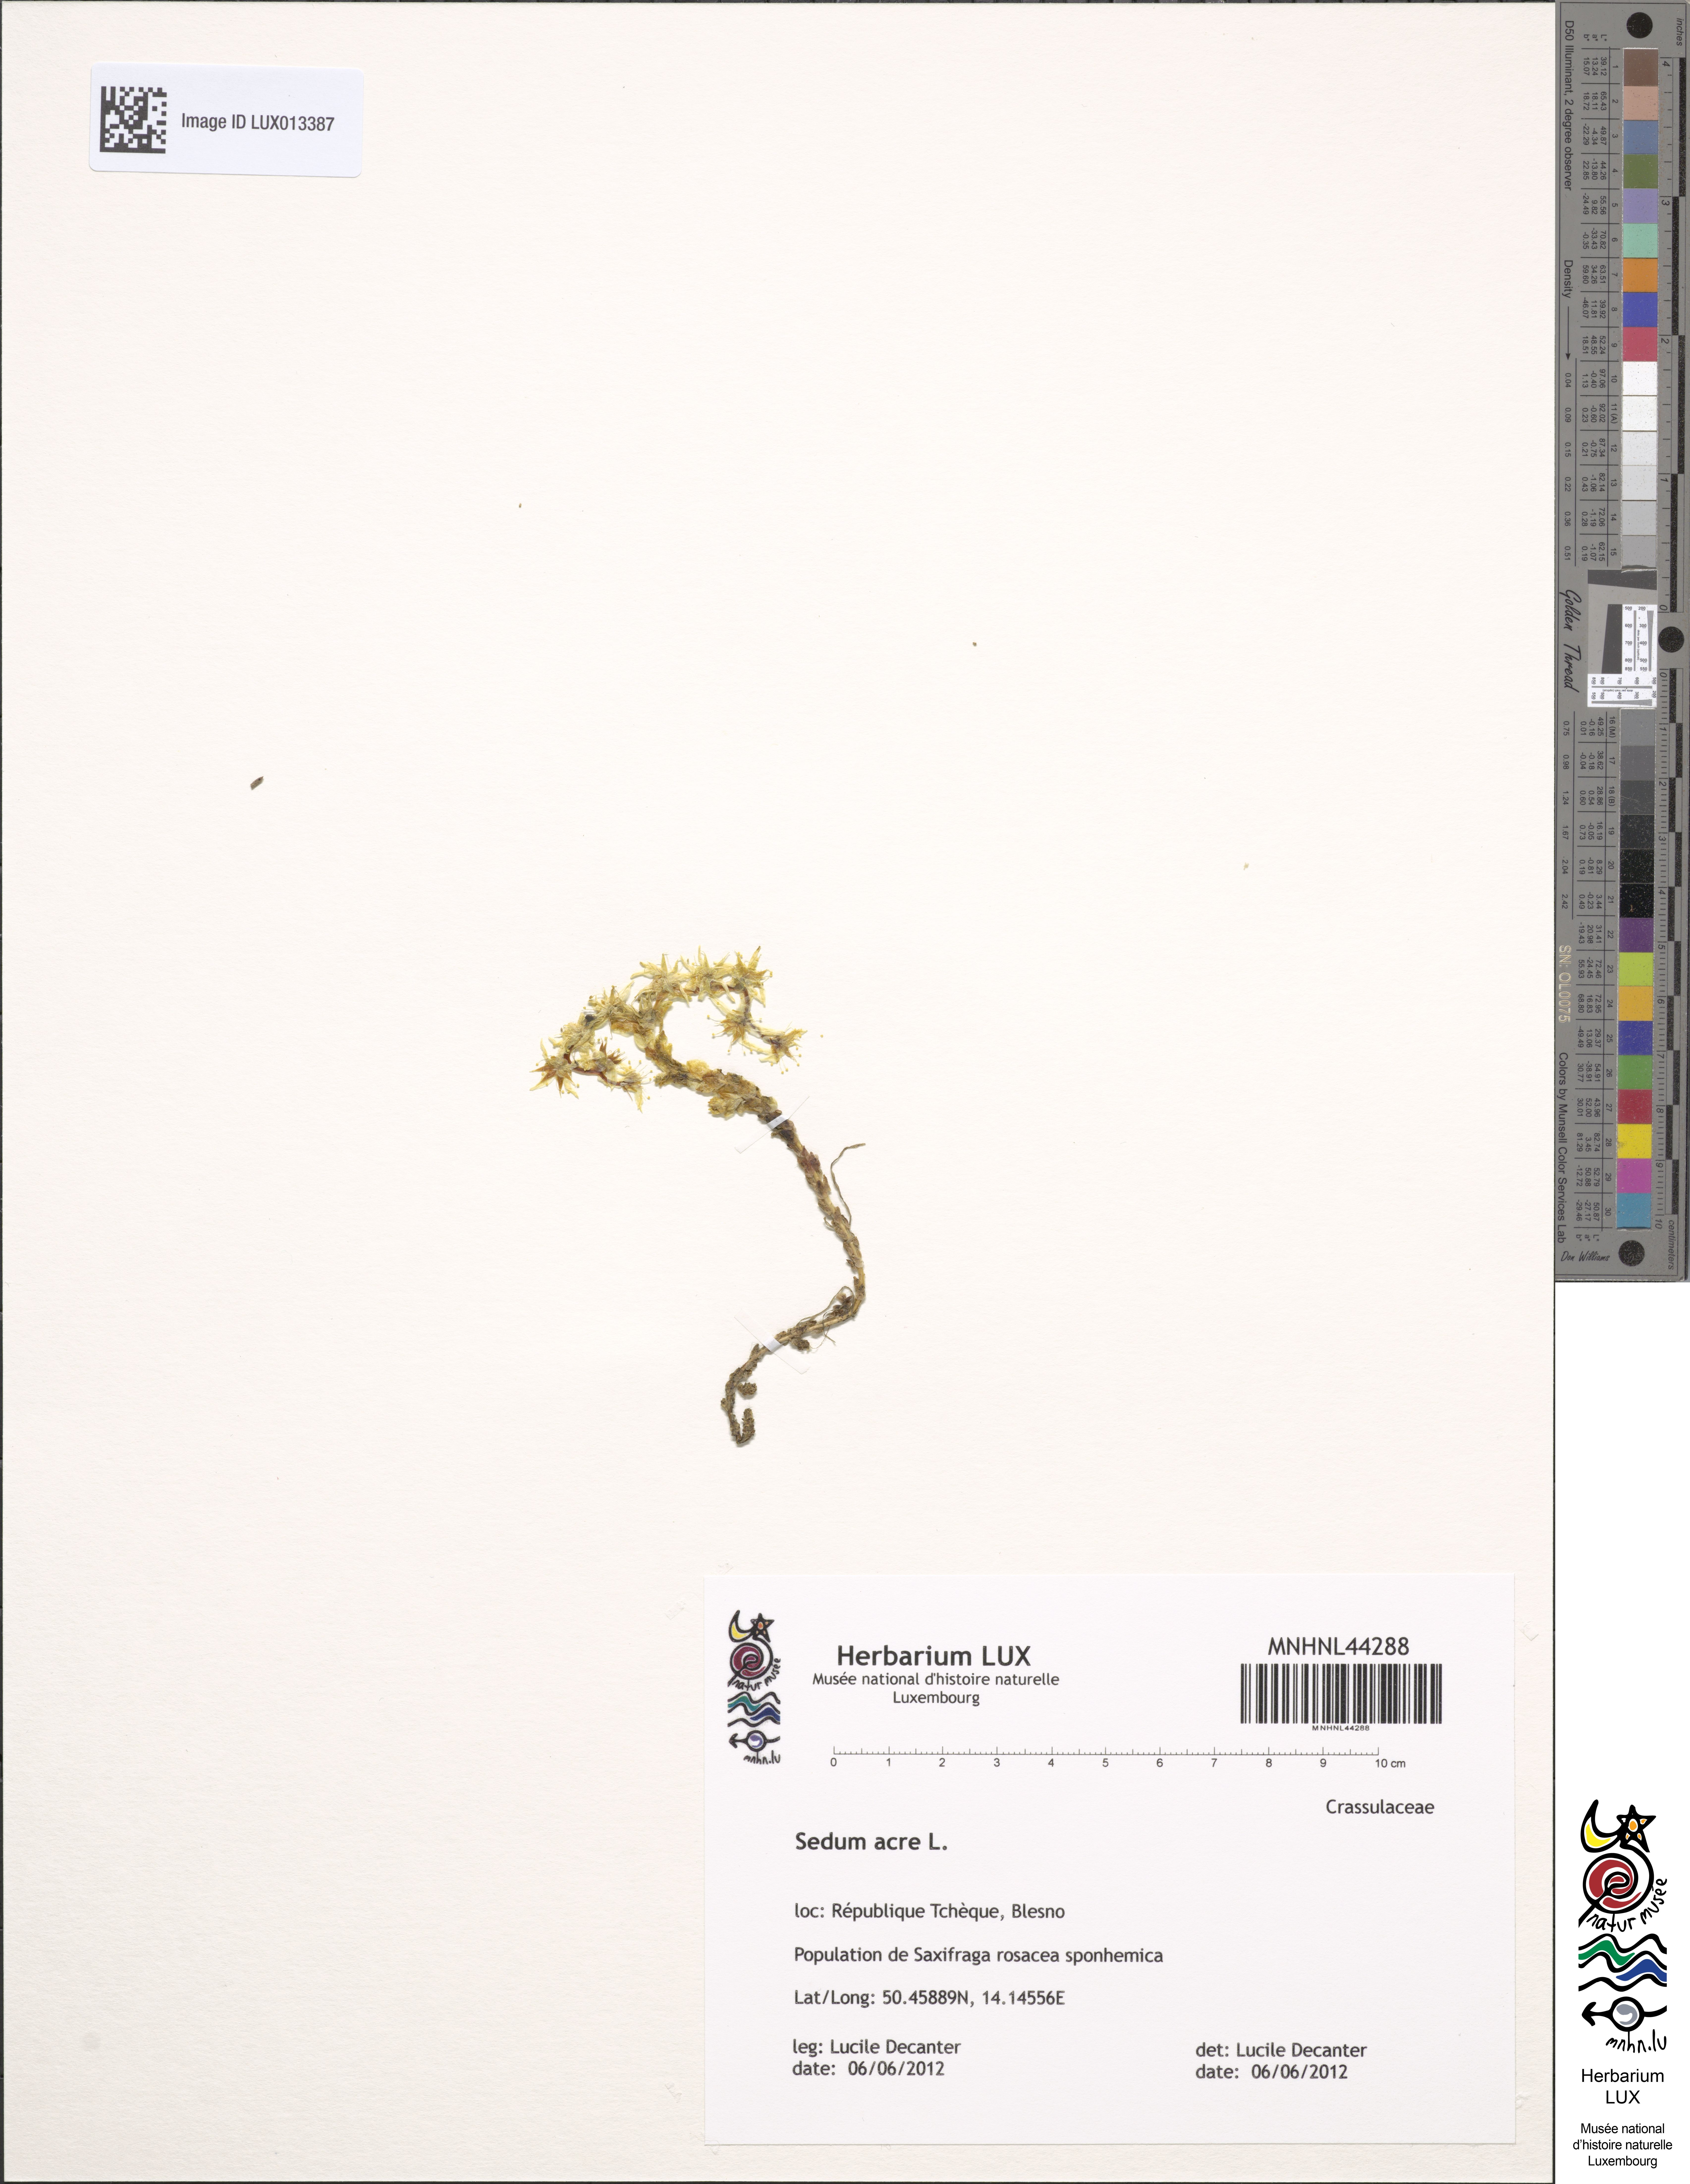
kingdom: Plantae
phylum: Tracheophyta
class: Magnoliopsida
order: Saxifragales
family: Crassulaceae
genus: Sedum
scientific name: Sedum acre
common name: Biting stonecrop
